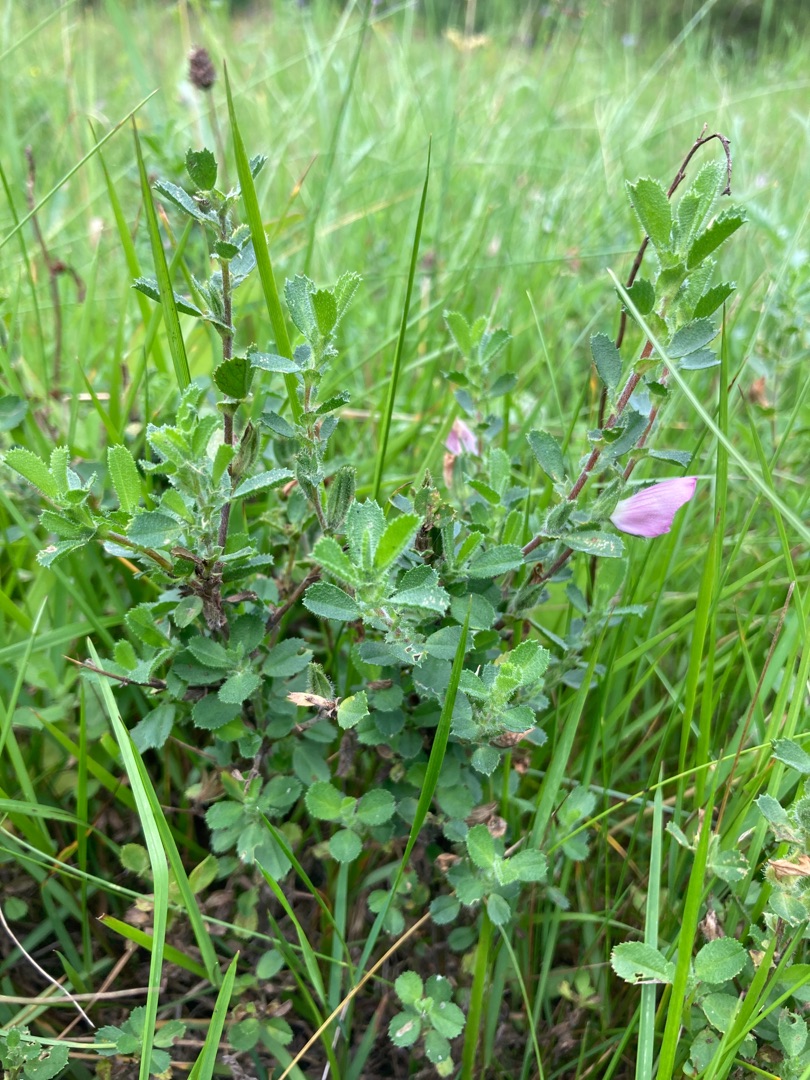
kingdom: Plantae
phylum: Tracheophyta
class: Magnoliopsida
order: Fabales
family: Fabaceae
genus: Ononis
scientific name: Ononis spinosa
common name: Mark-krageklo
